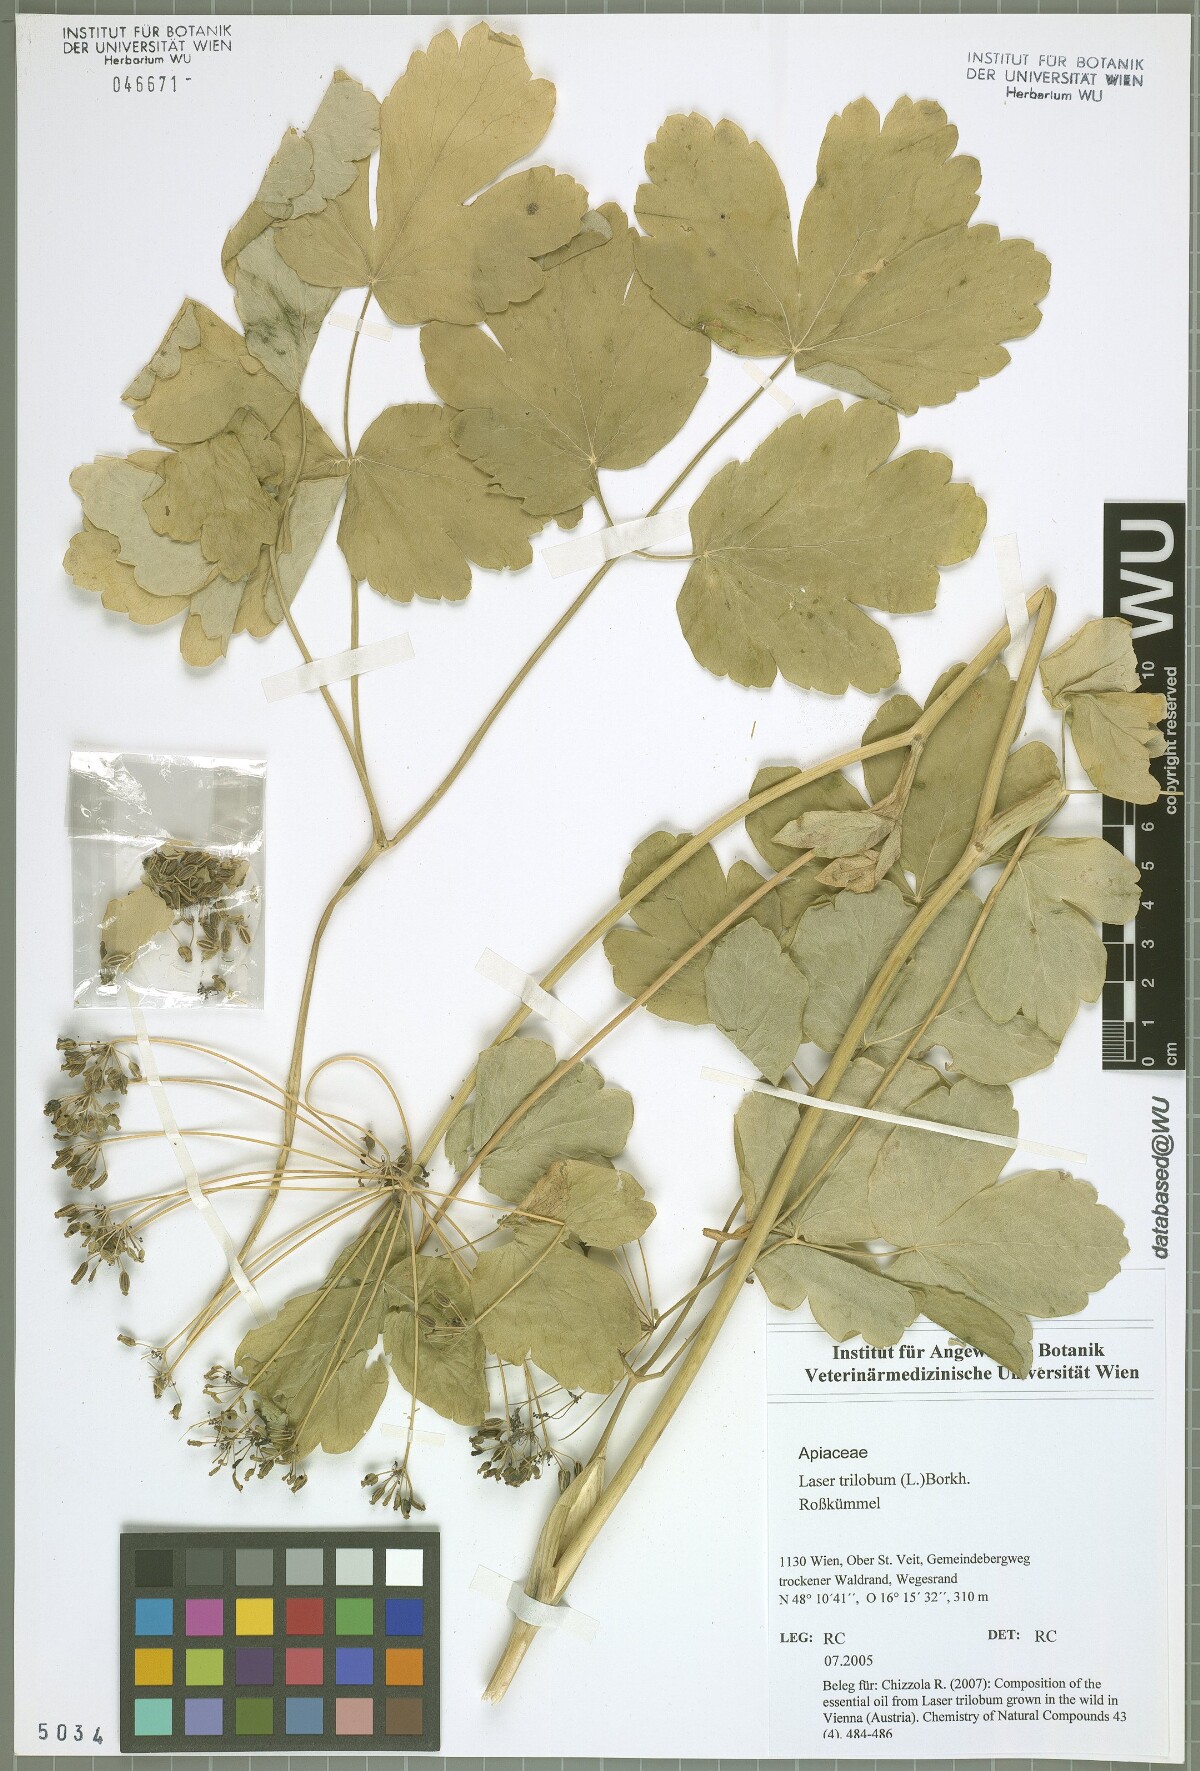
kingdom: Plantae
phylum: Tracheophyta
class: Magnoliopsida
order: Apiales
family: Apiaceae
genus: Laser
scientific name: Laser trilobum
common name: Laser
